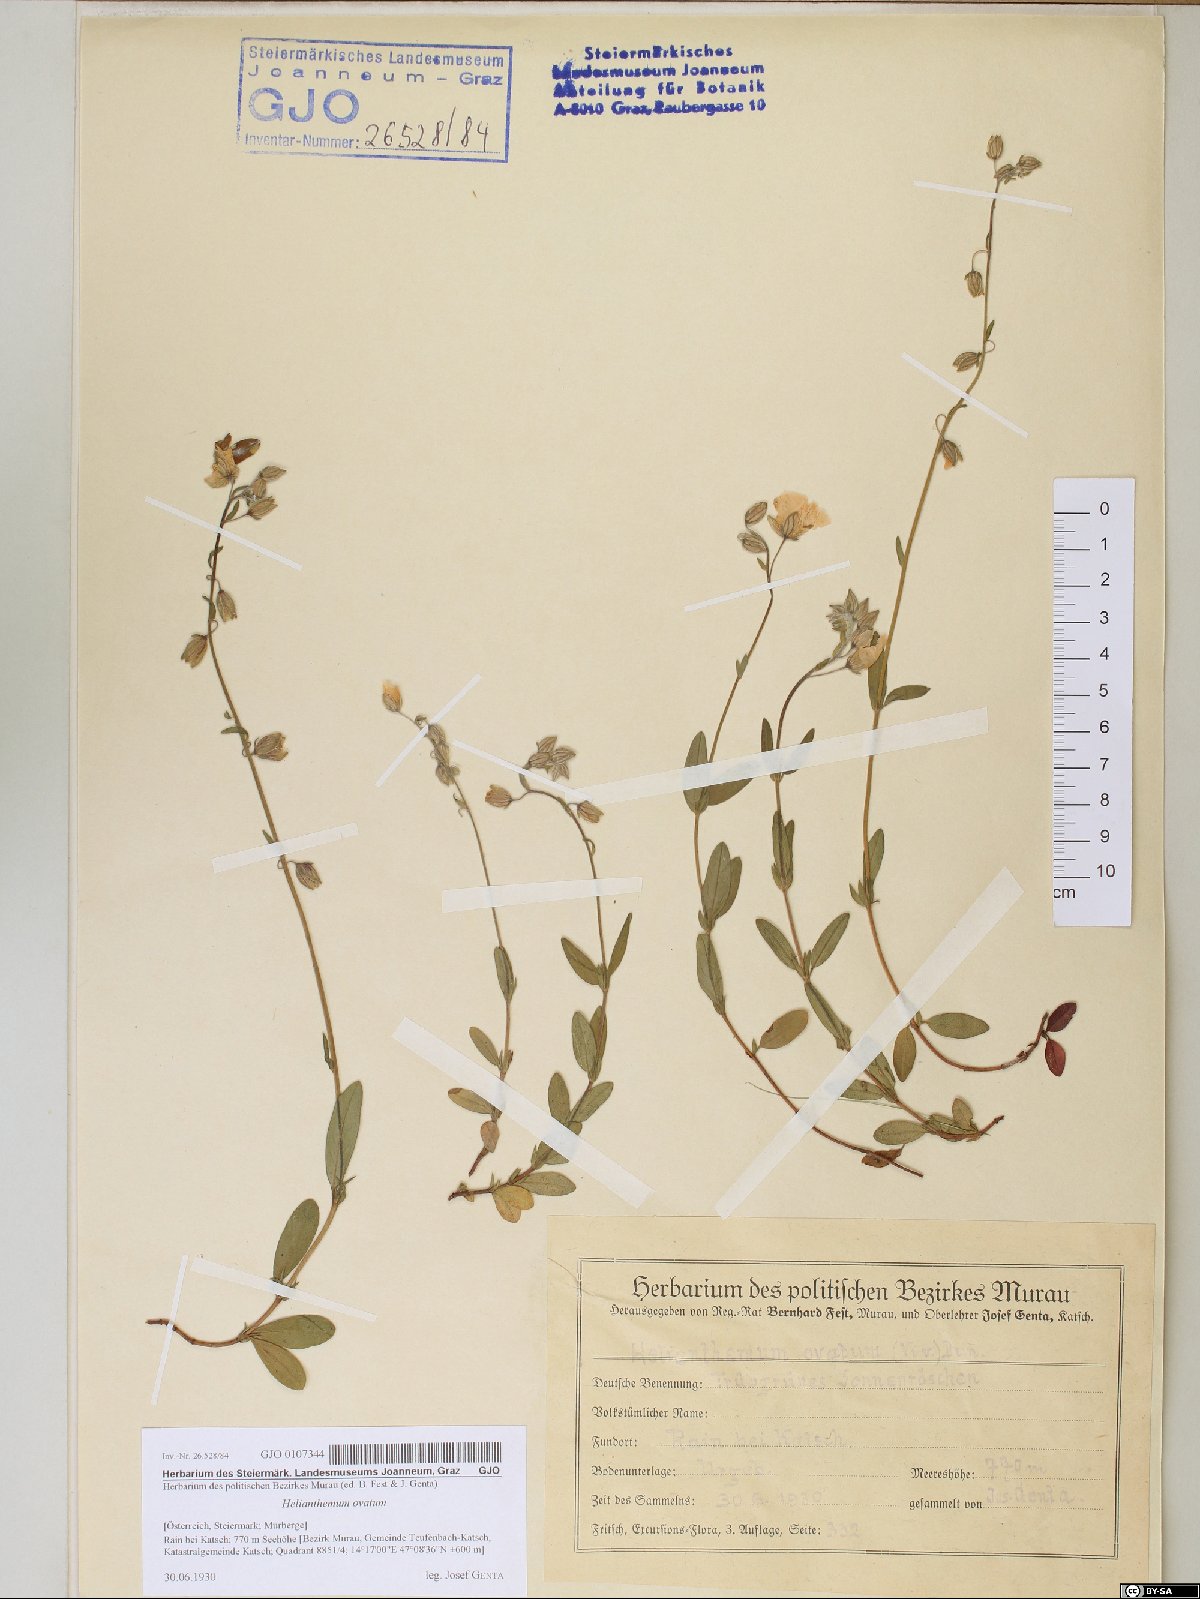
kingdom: Plantae
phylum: Tracheophyta
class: Magnoliopsida
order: Malvales
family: Cistaceae
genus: Helianthemum
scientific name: Helianthemum nummularium
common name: Common rock-rose
